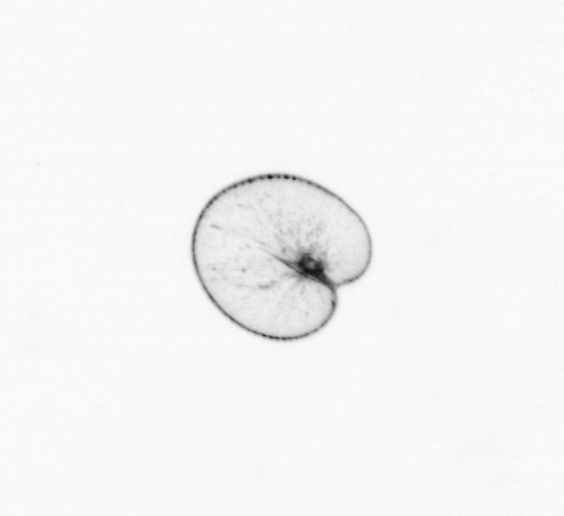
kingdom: Chromista
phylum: Myzozoa
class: Dinophyceae
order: Noctilucales
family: Noctilucaceae
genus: Noctiluca
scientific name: Noctiluca scintillans
